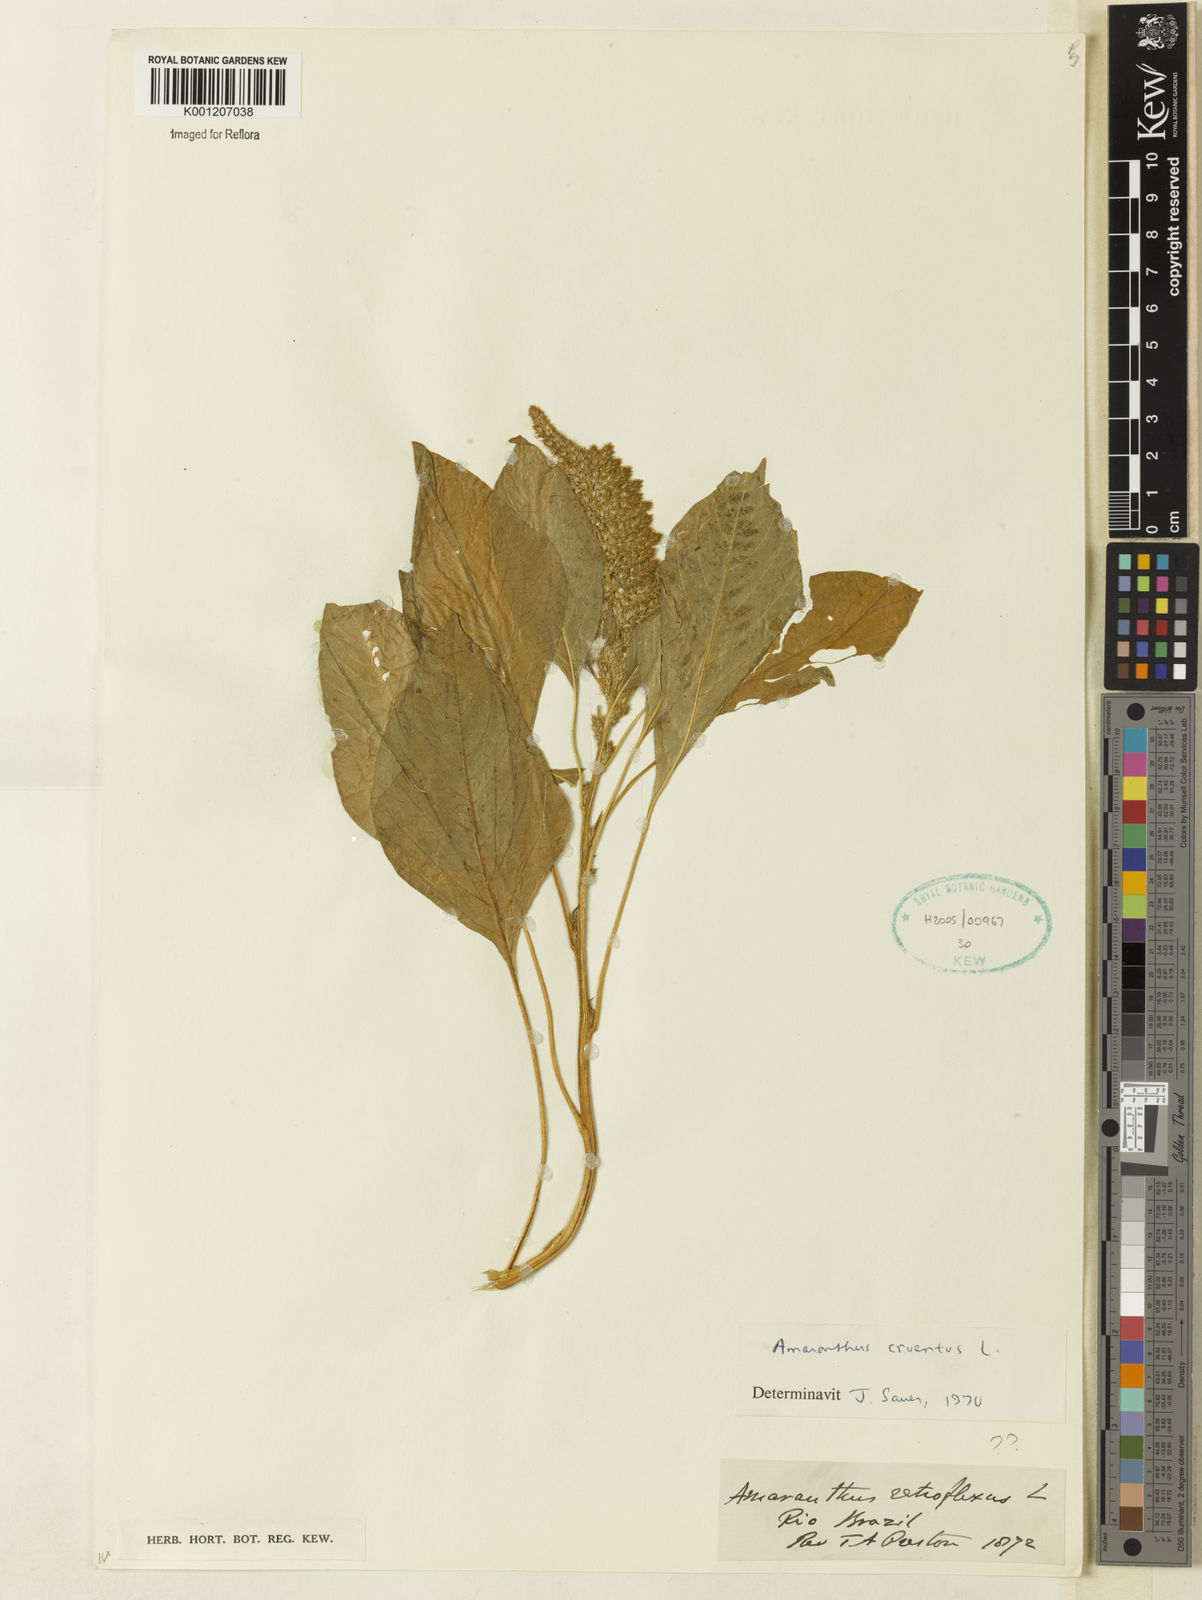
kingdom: Plantae
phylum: Tracheophyta
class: Magnoliopsida
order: Caryophyllales
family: Amaranthaceae
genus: Amaranthus
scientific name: Amaranthus cruentus
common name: Purple amaranth
